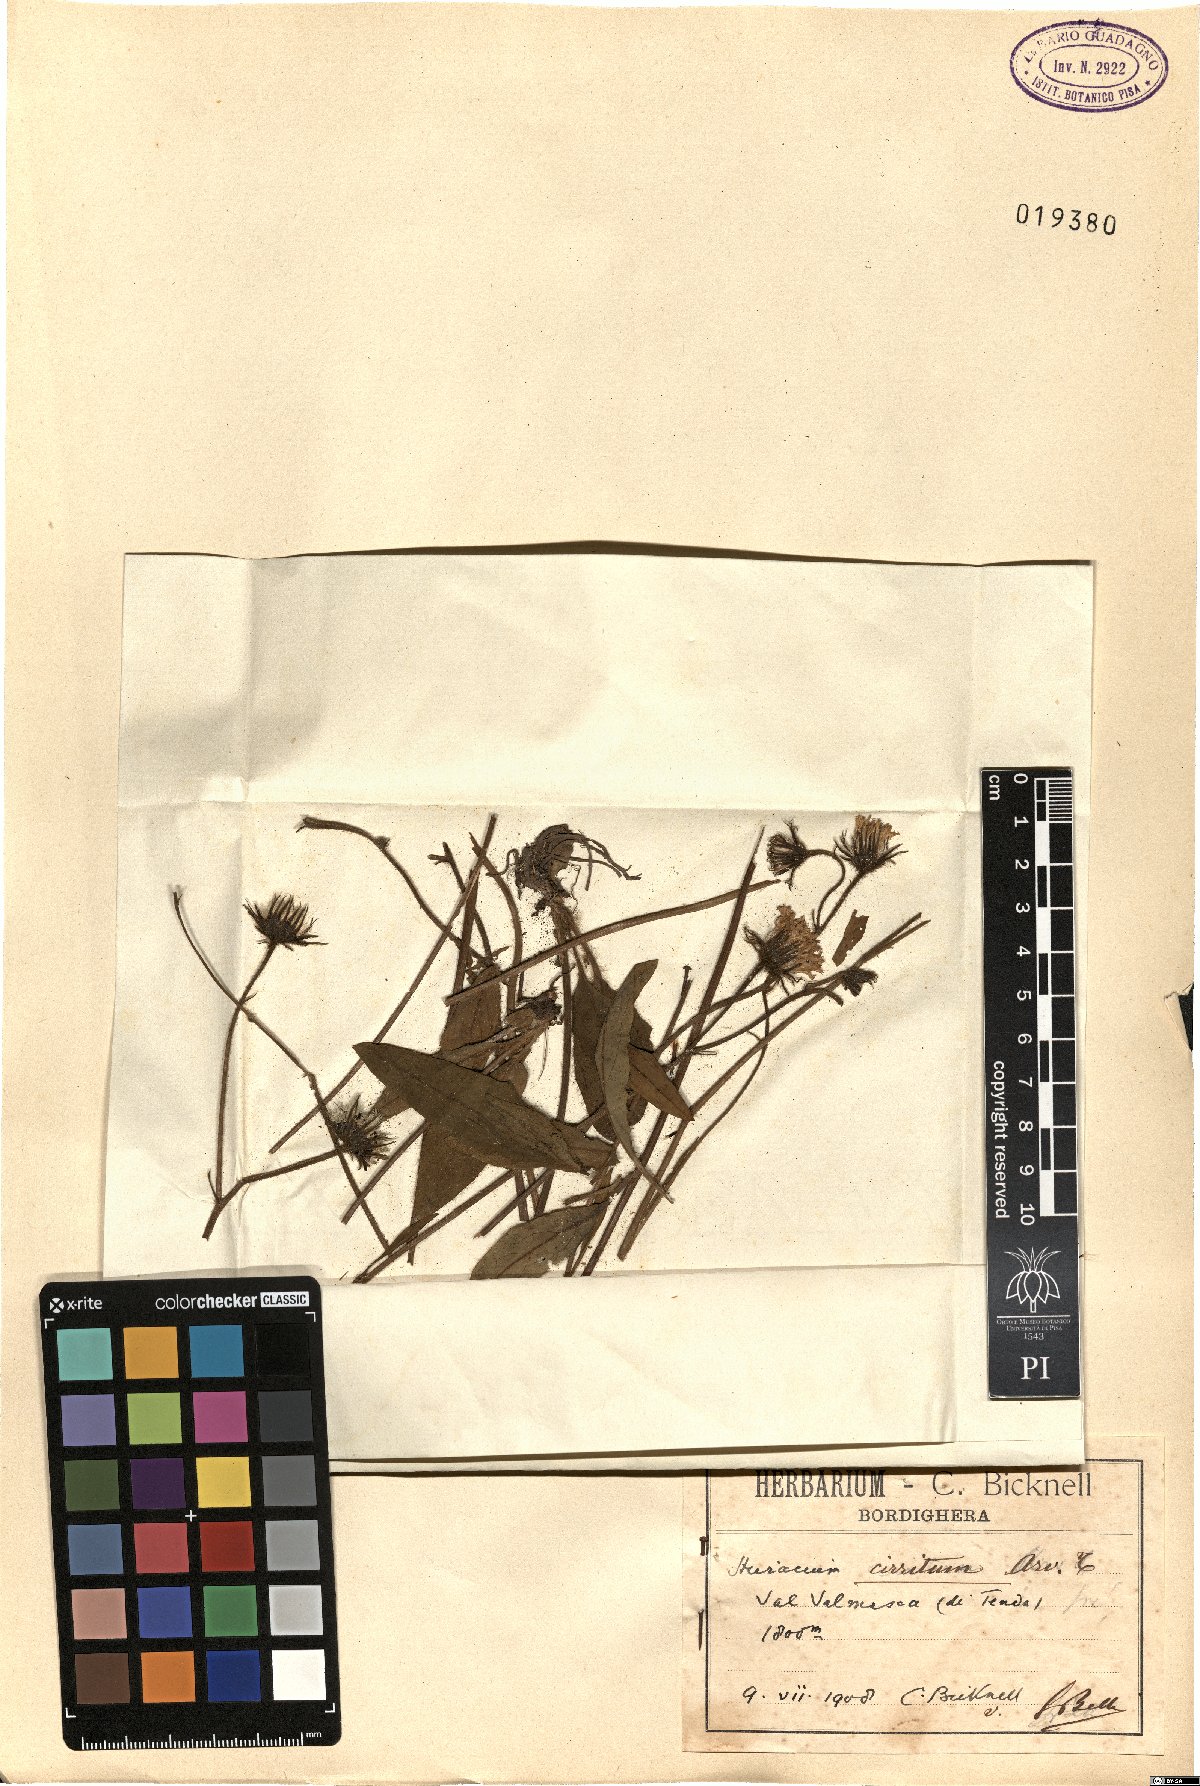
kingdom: Plantae
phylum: Tracheophyta
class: Magnoliopsida
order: Asterales
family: Asteraceae
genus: Hieracium
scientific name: Hieracium cirritum
